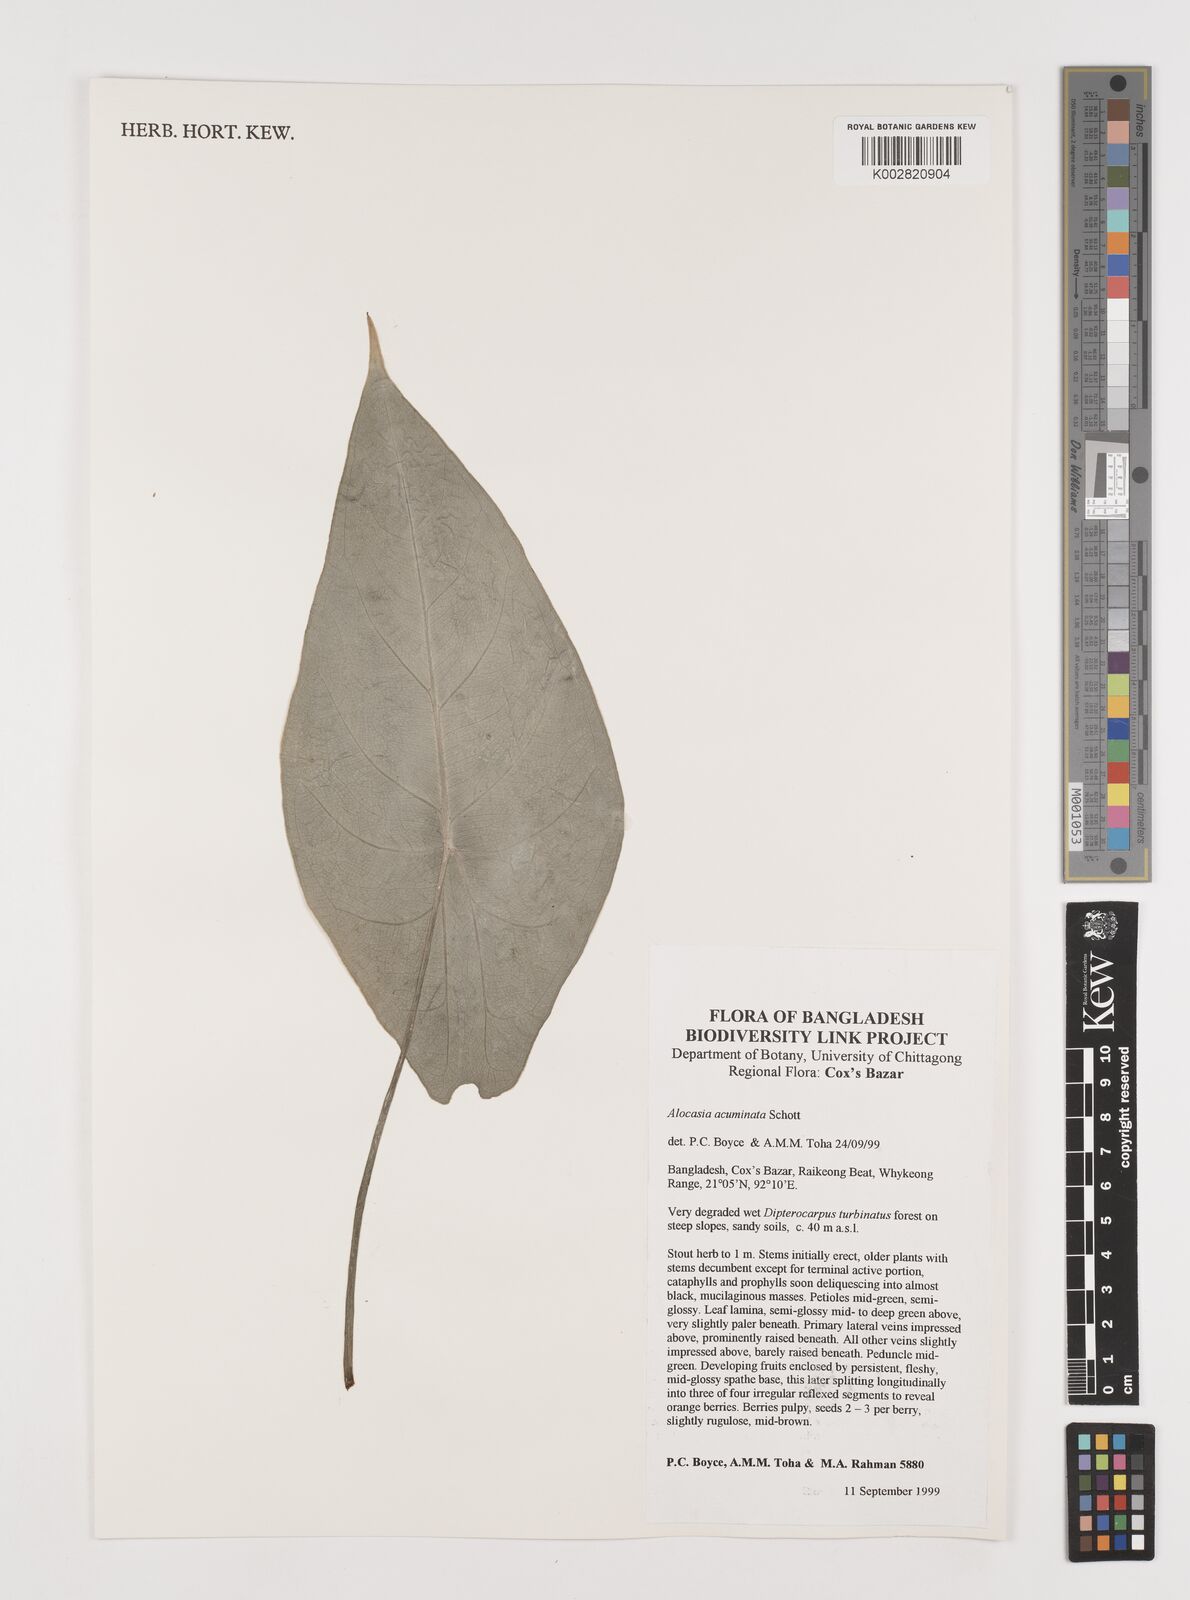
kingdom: Plantae
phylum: Tracheophyta
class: Liliopsida
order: Alismatales
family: Araceae
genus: Alocasia
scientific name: Alocasia acuminata
